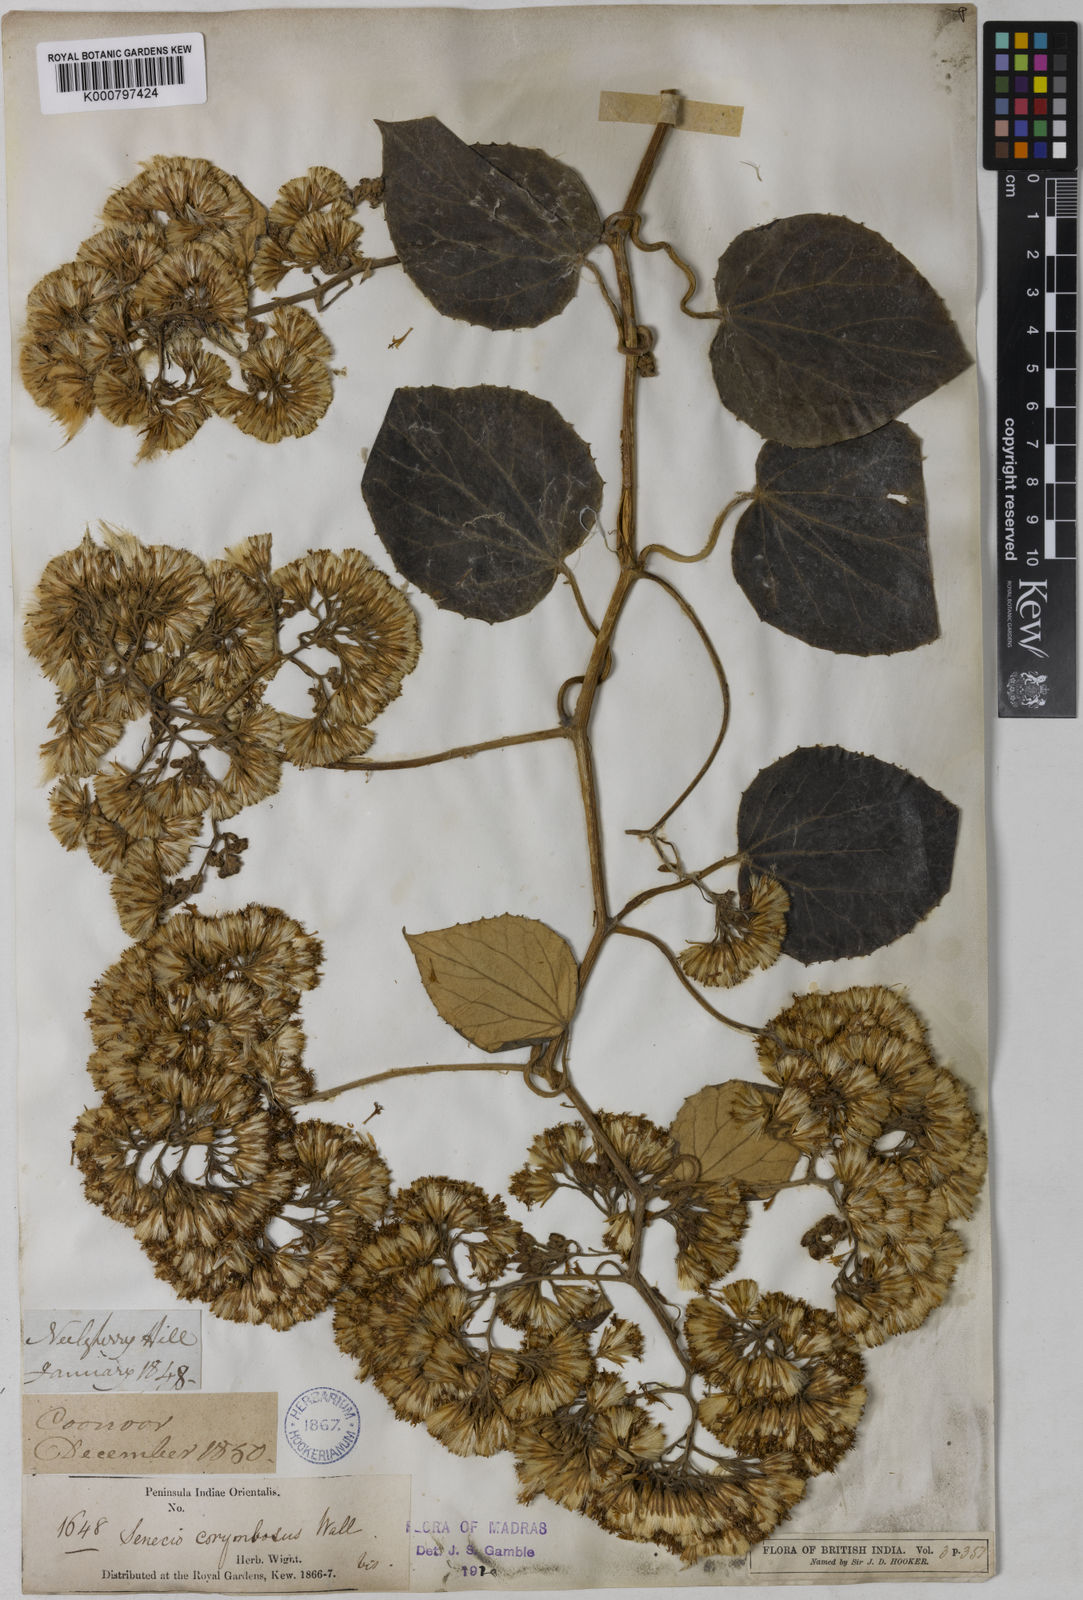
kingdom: Plantae
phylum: Tracheophyta
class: Magnoliopsida
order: Asterales
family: Asteraceae
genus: Cissampelopsis
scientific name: Cissampelopsis corymbosa
